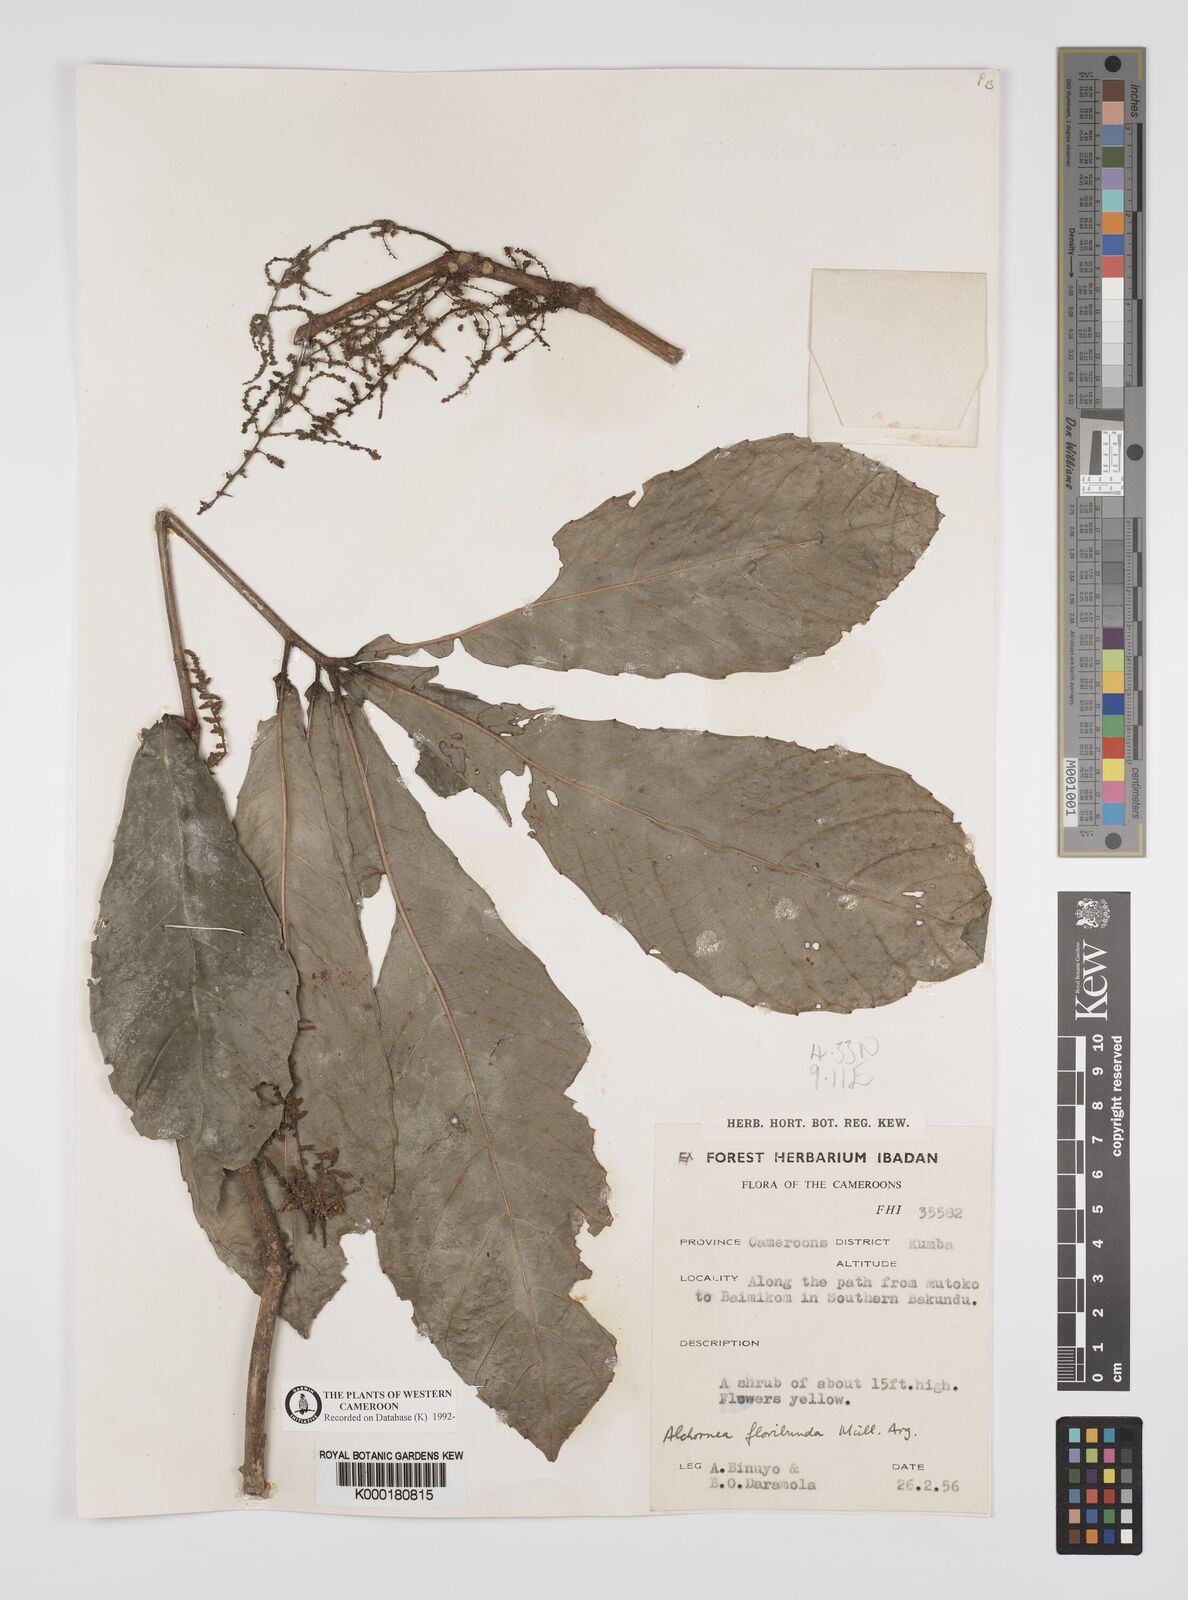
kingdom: Plantae
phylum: Tracheophyta
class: Magnoliopsida
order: Malpighiales
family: Euphorbiaceae
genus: Alchornea
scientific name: Alchornea
